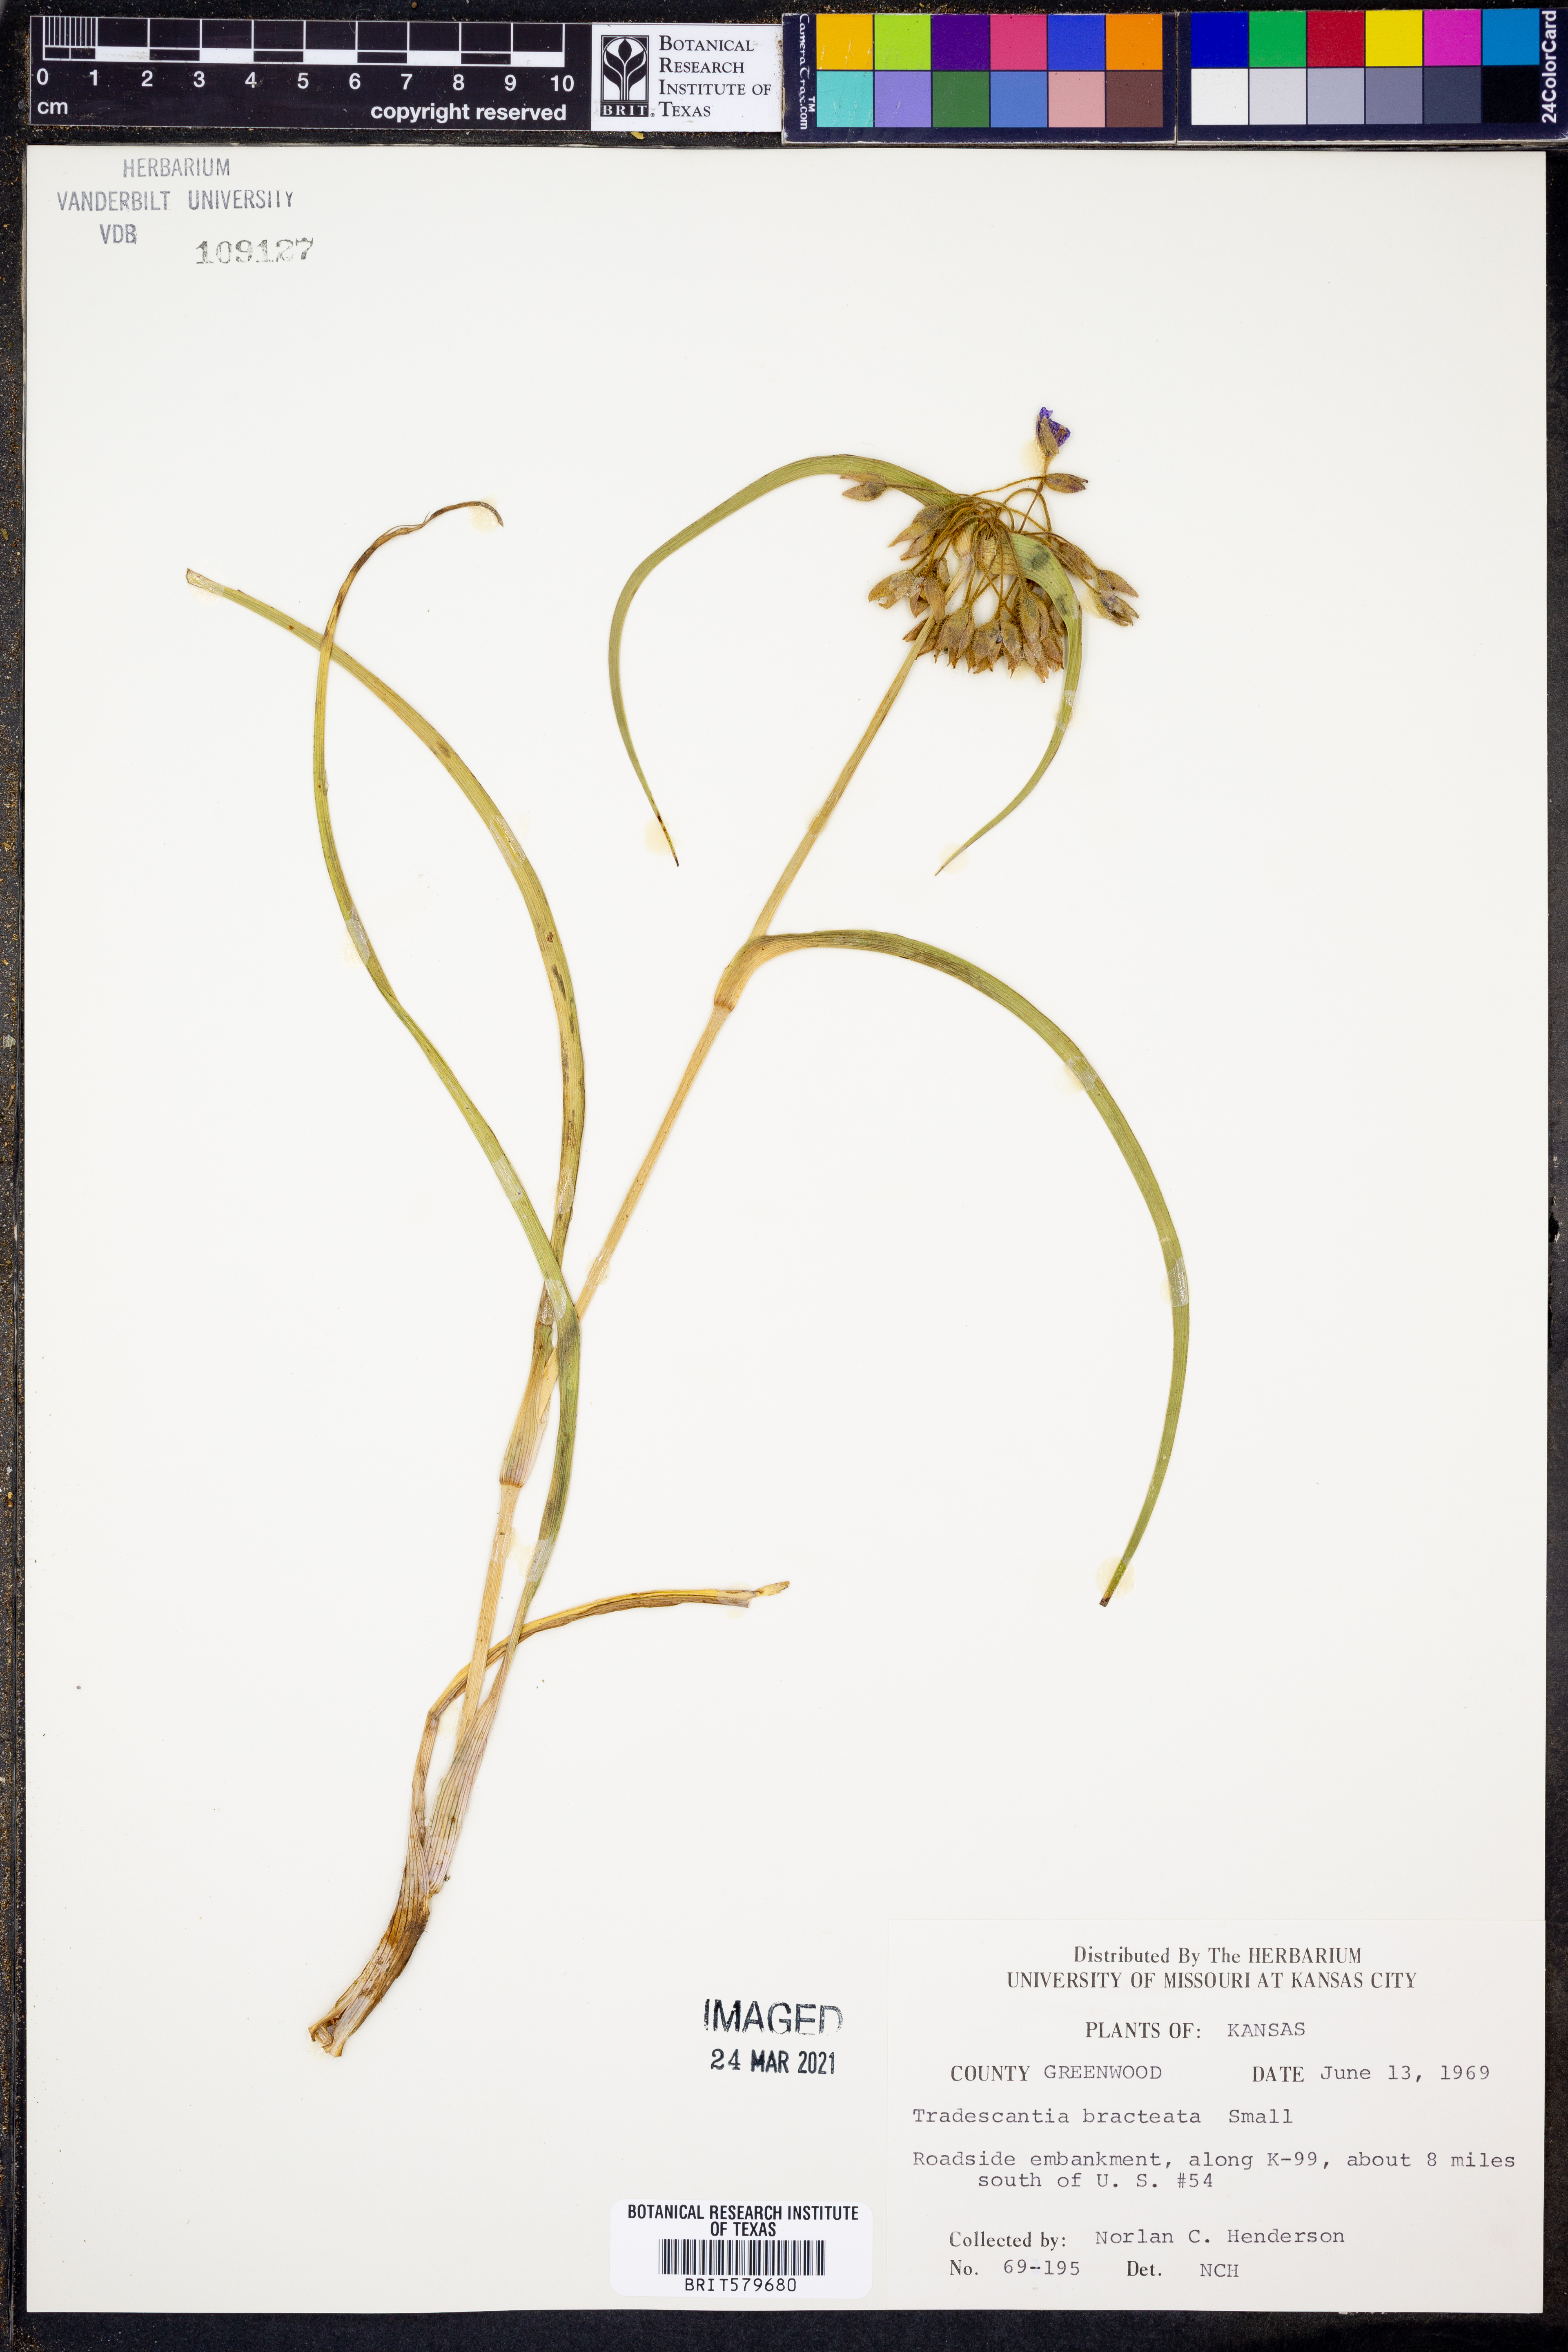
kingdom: Plantae
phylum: Tracheophyta
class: Liliopsida
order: Commelinales
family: Commelinaceae
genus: Tradescantia
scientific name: Tradescantia bracteata
